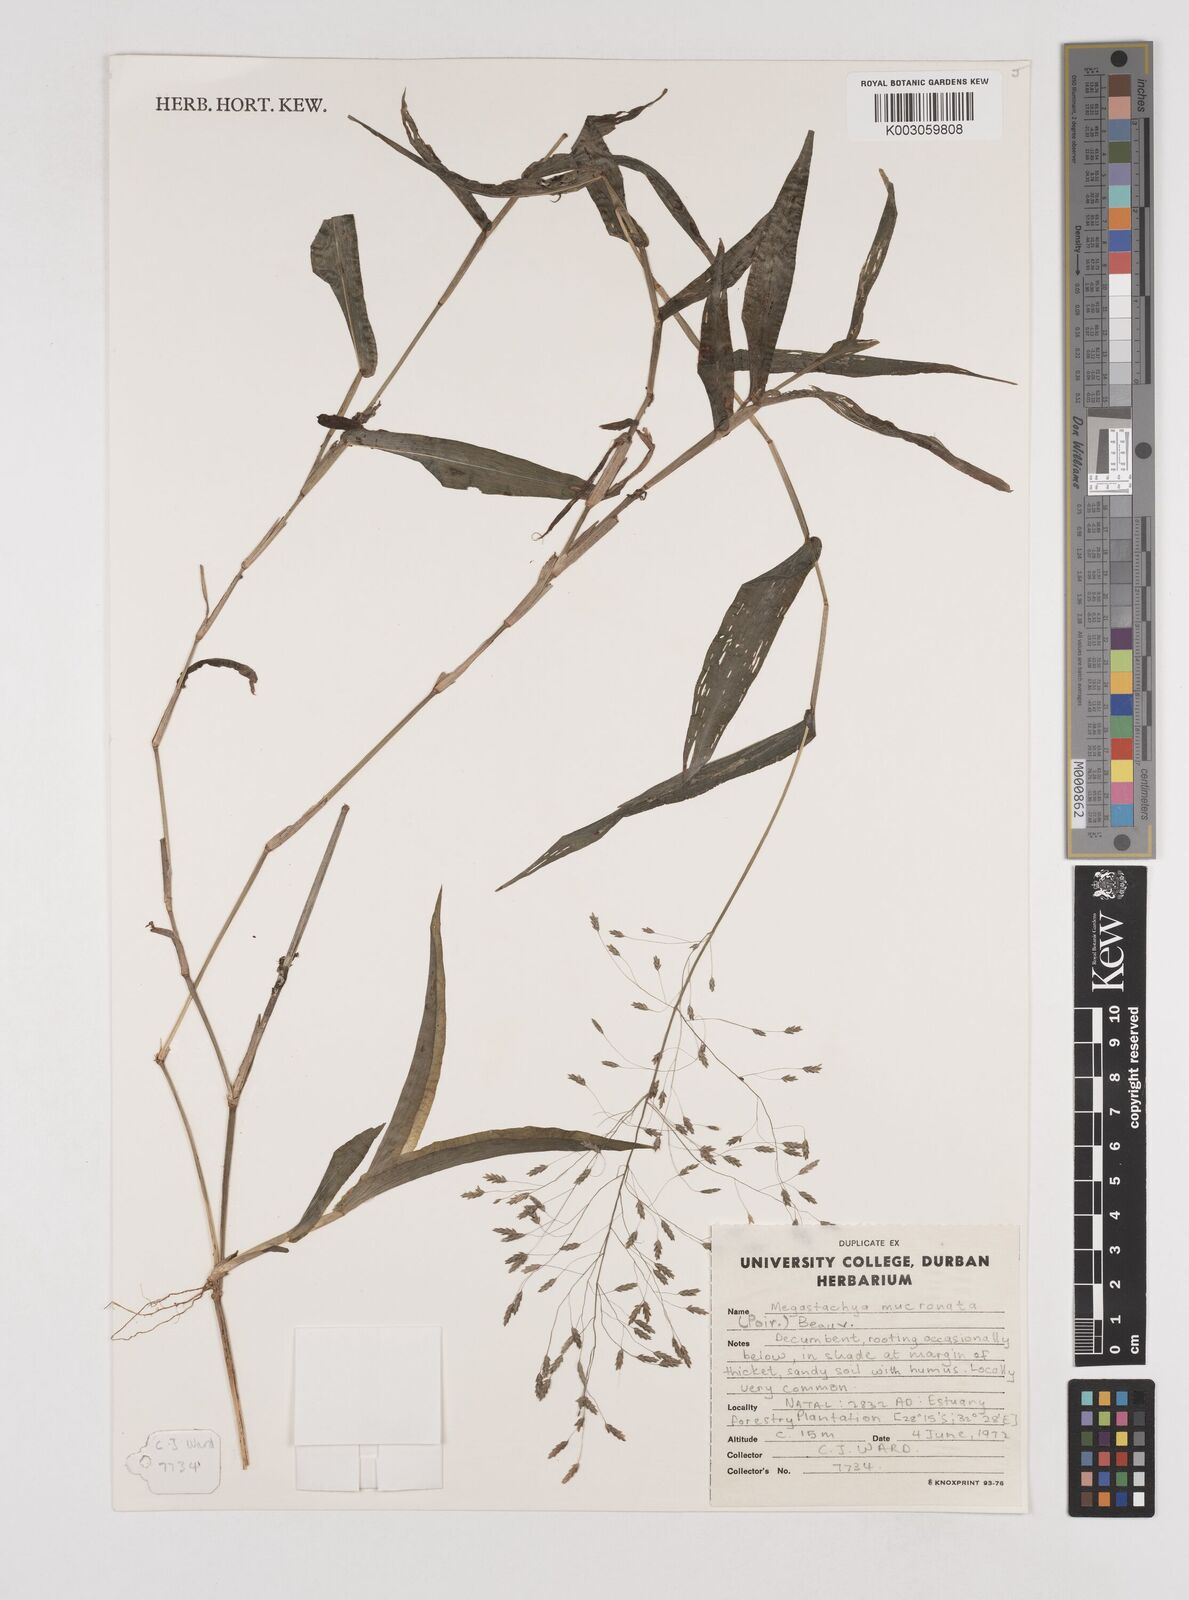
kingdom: Plantae
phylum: Tracheophyta
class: Liliopsida
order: Poales
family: Poaceae
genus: Megastachya
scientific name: Megastachya mucronata
